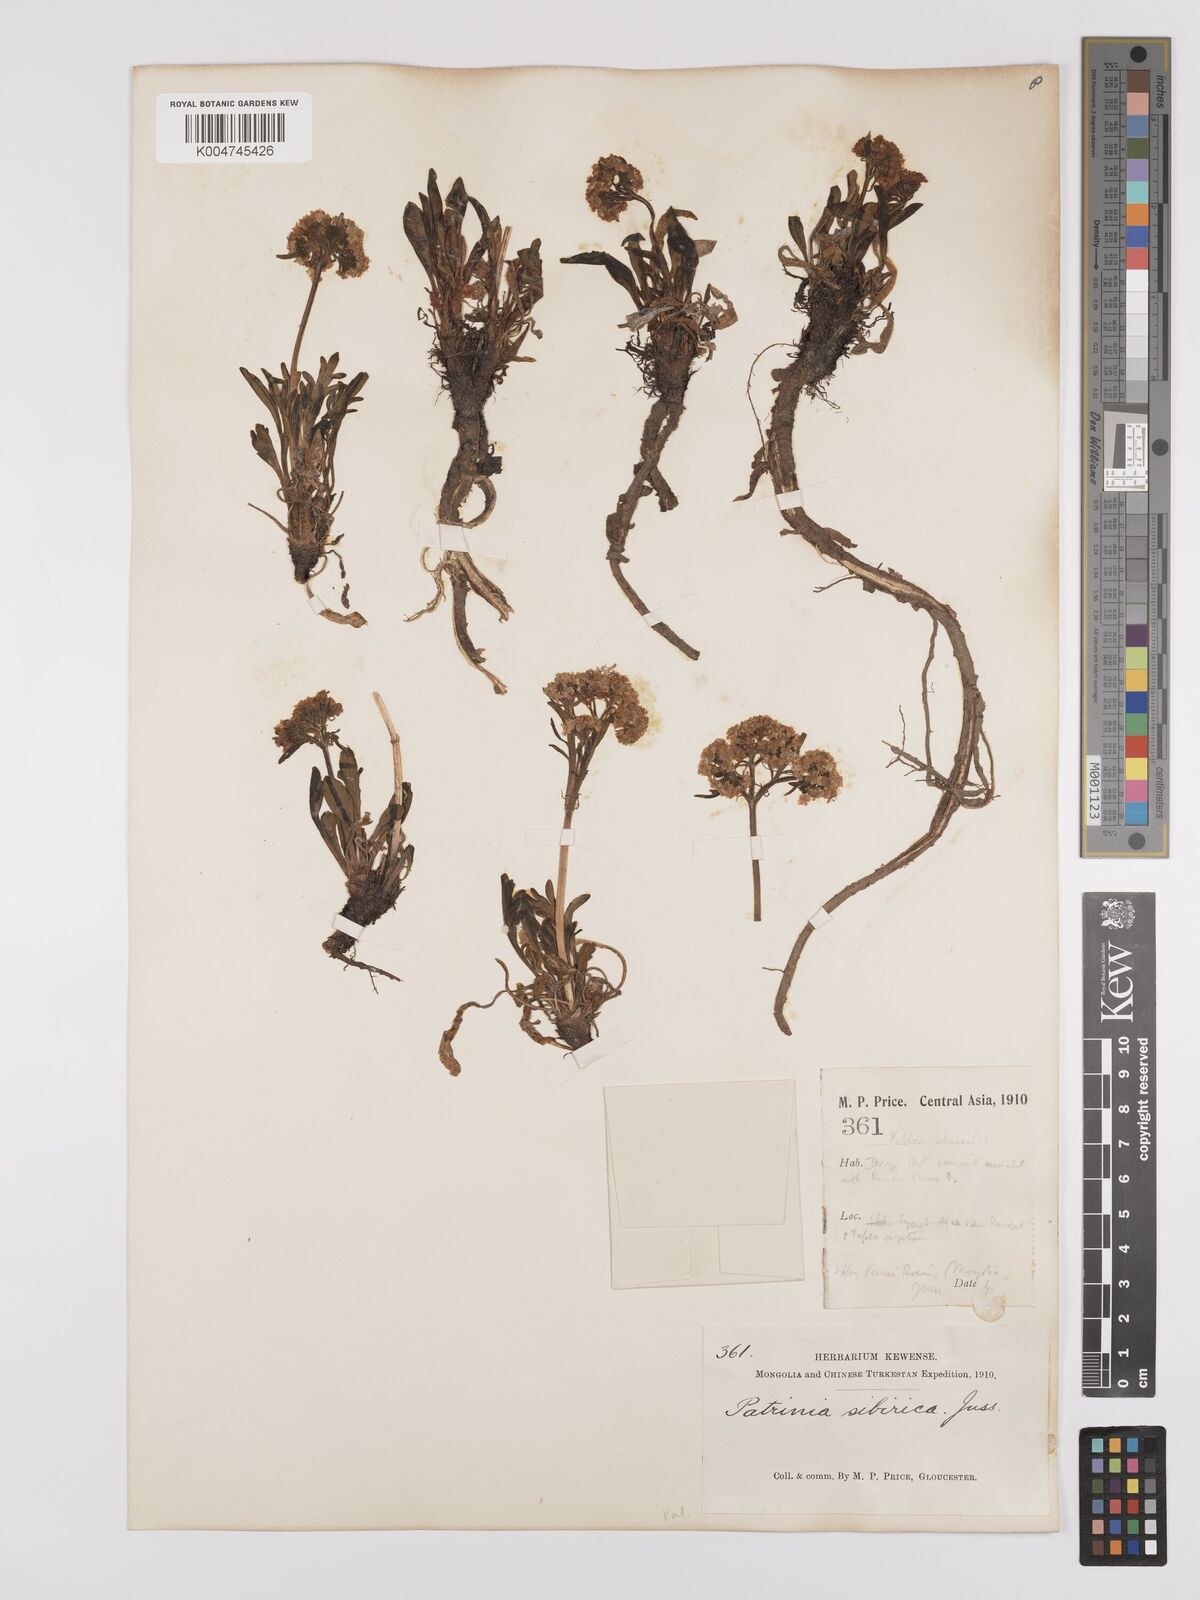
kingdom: Plantae
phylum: Tracheophyta
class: Magnoliopsida
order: Dipsacales
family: Caprifoliaceae
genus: Patrinia
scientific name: Patrinia sibirica
